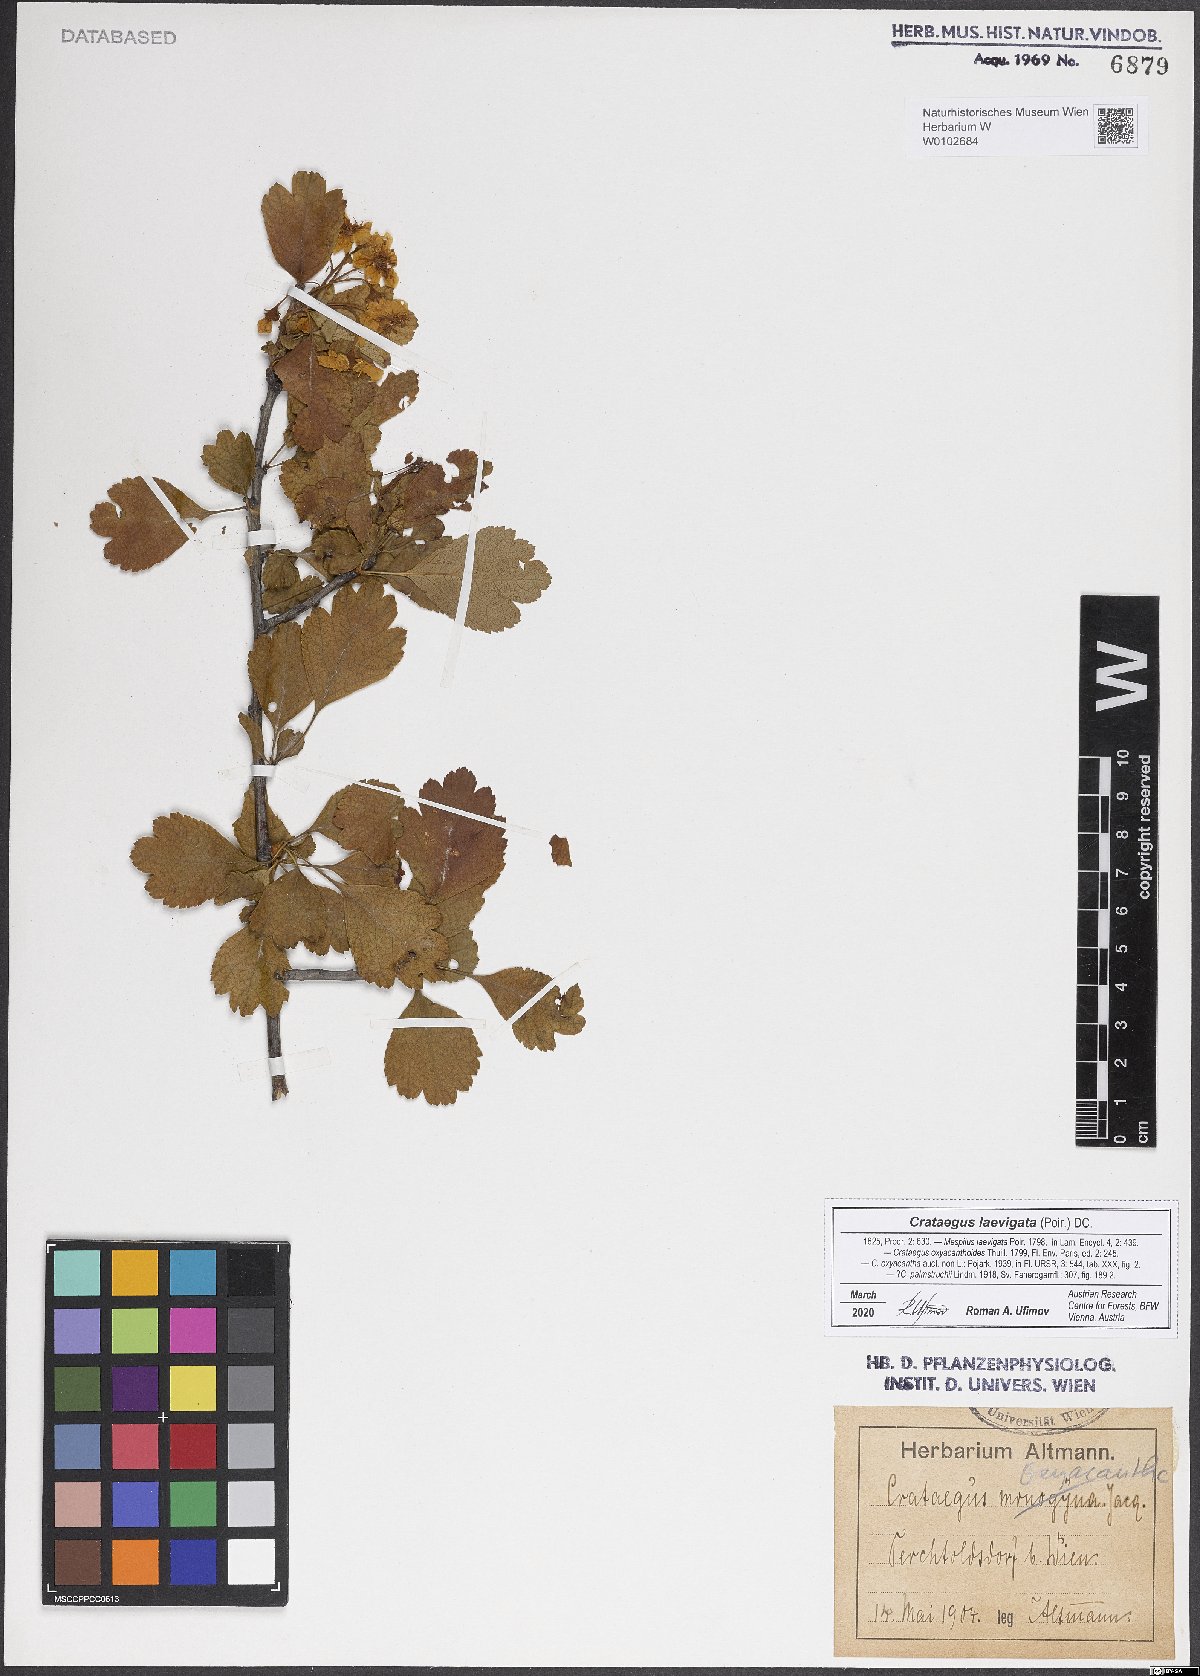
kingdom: Plantae
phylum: Tracheophyta
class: Magnoliopsida
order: Rosales
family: Rosaceae
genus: Crataegus
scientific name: Crataegus laevigata
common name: Midland hawthorn
